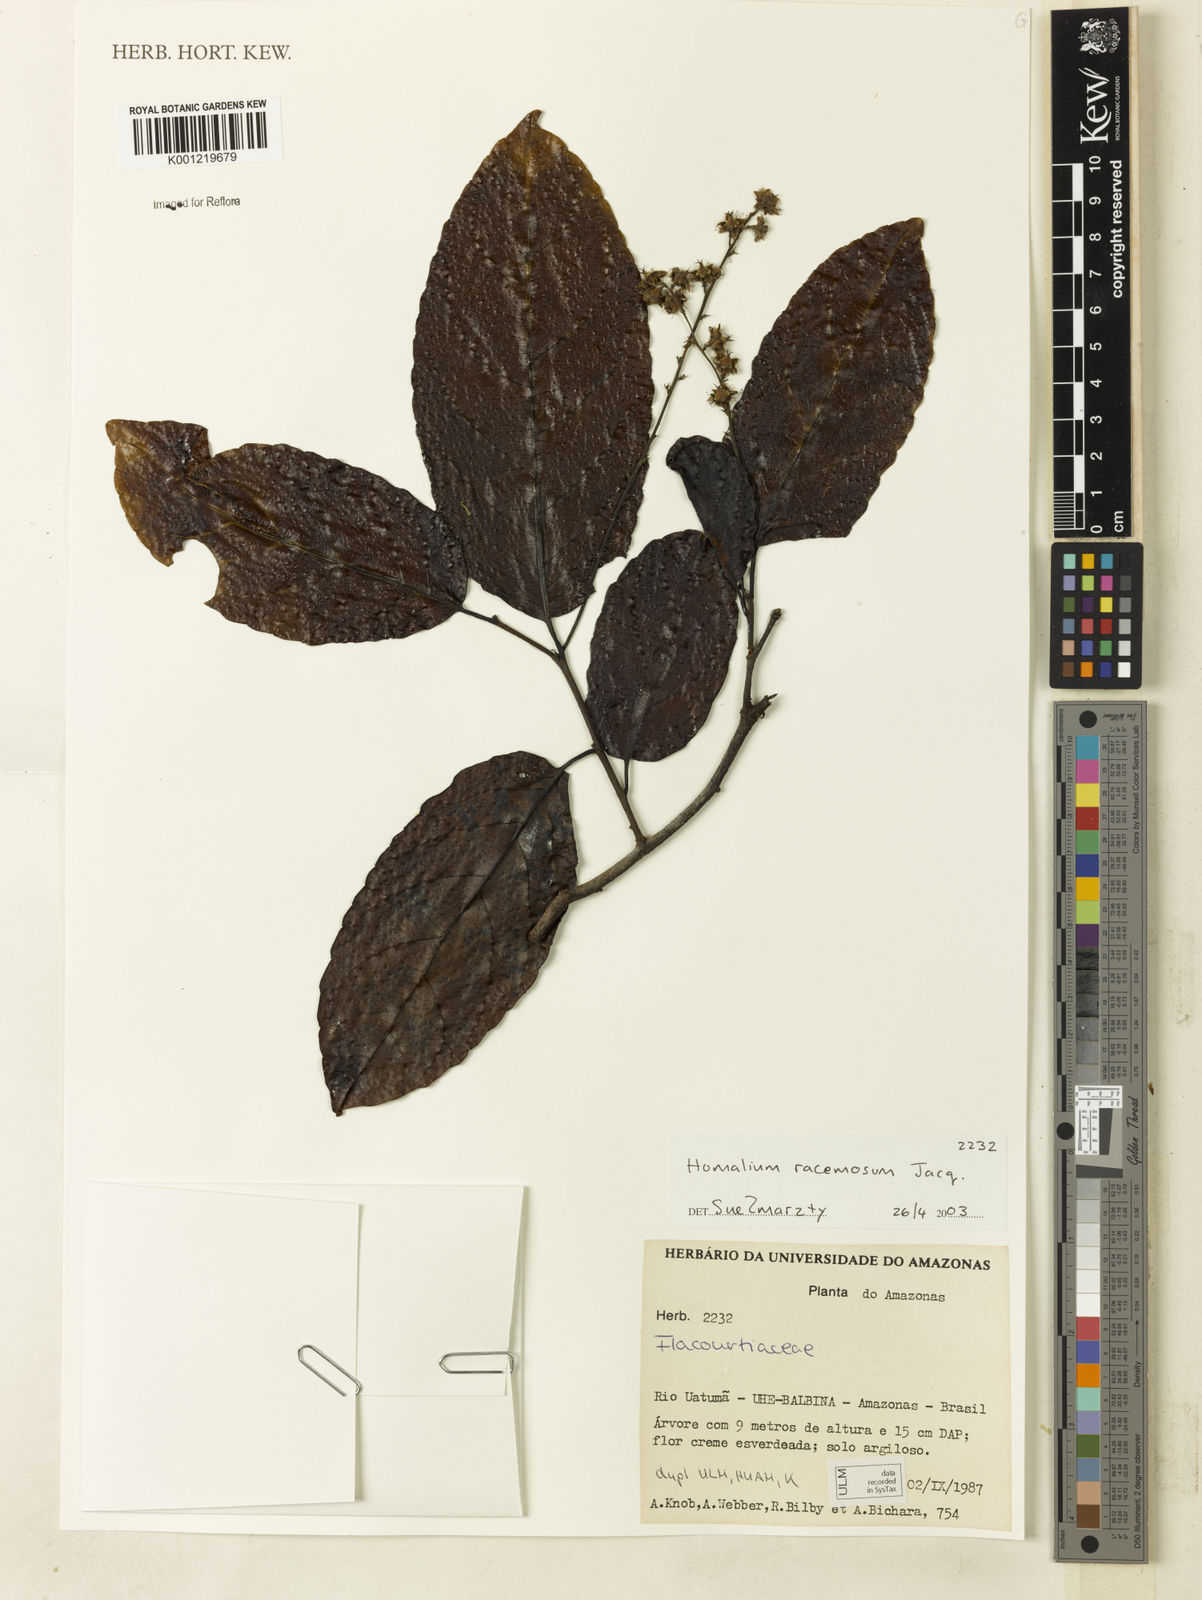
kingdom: Plantae
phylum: Tracheophyta
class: Magnoliopsida
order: Malpighiales
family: Salicaceae
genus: Homalium
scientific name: Homalium racemosum
